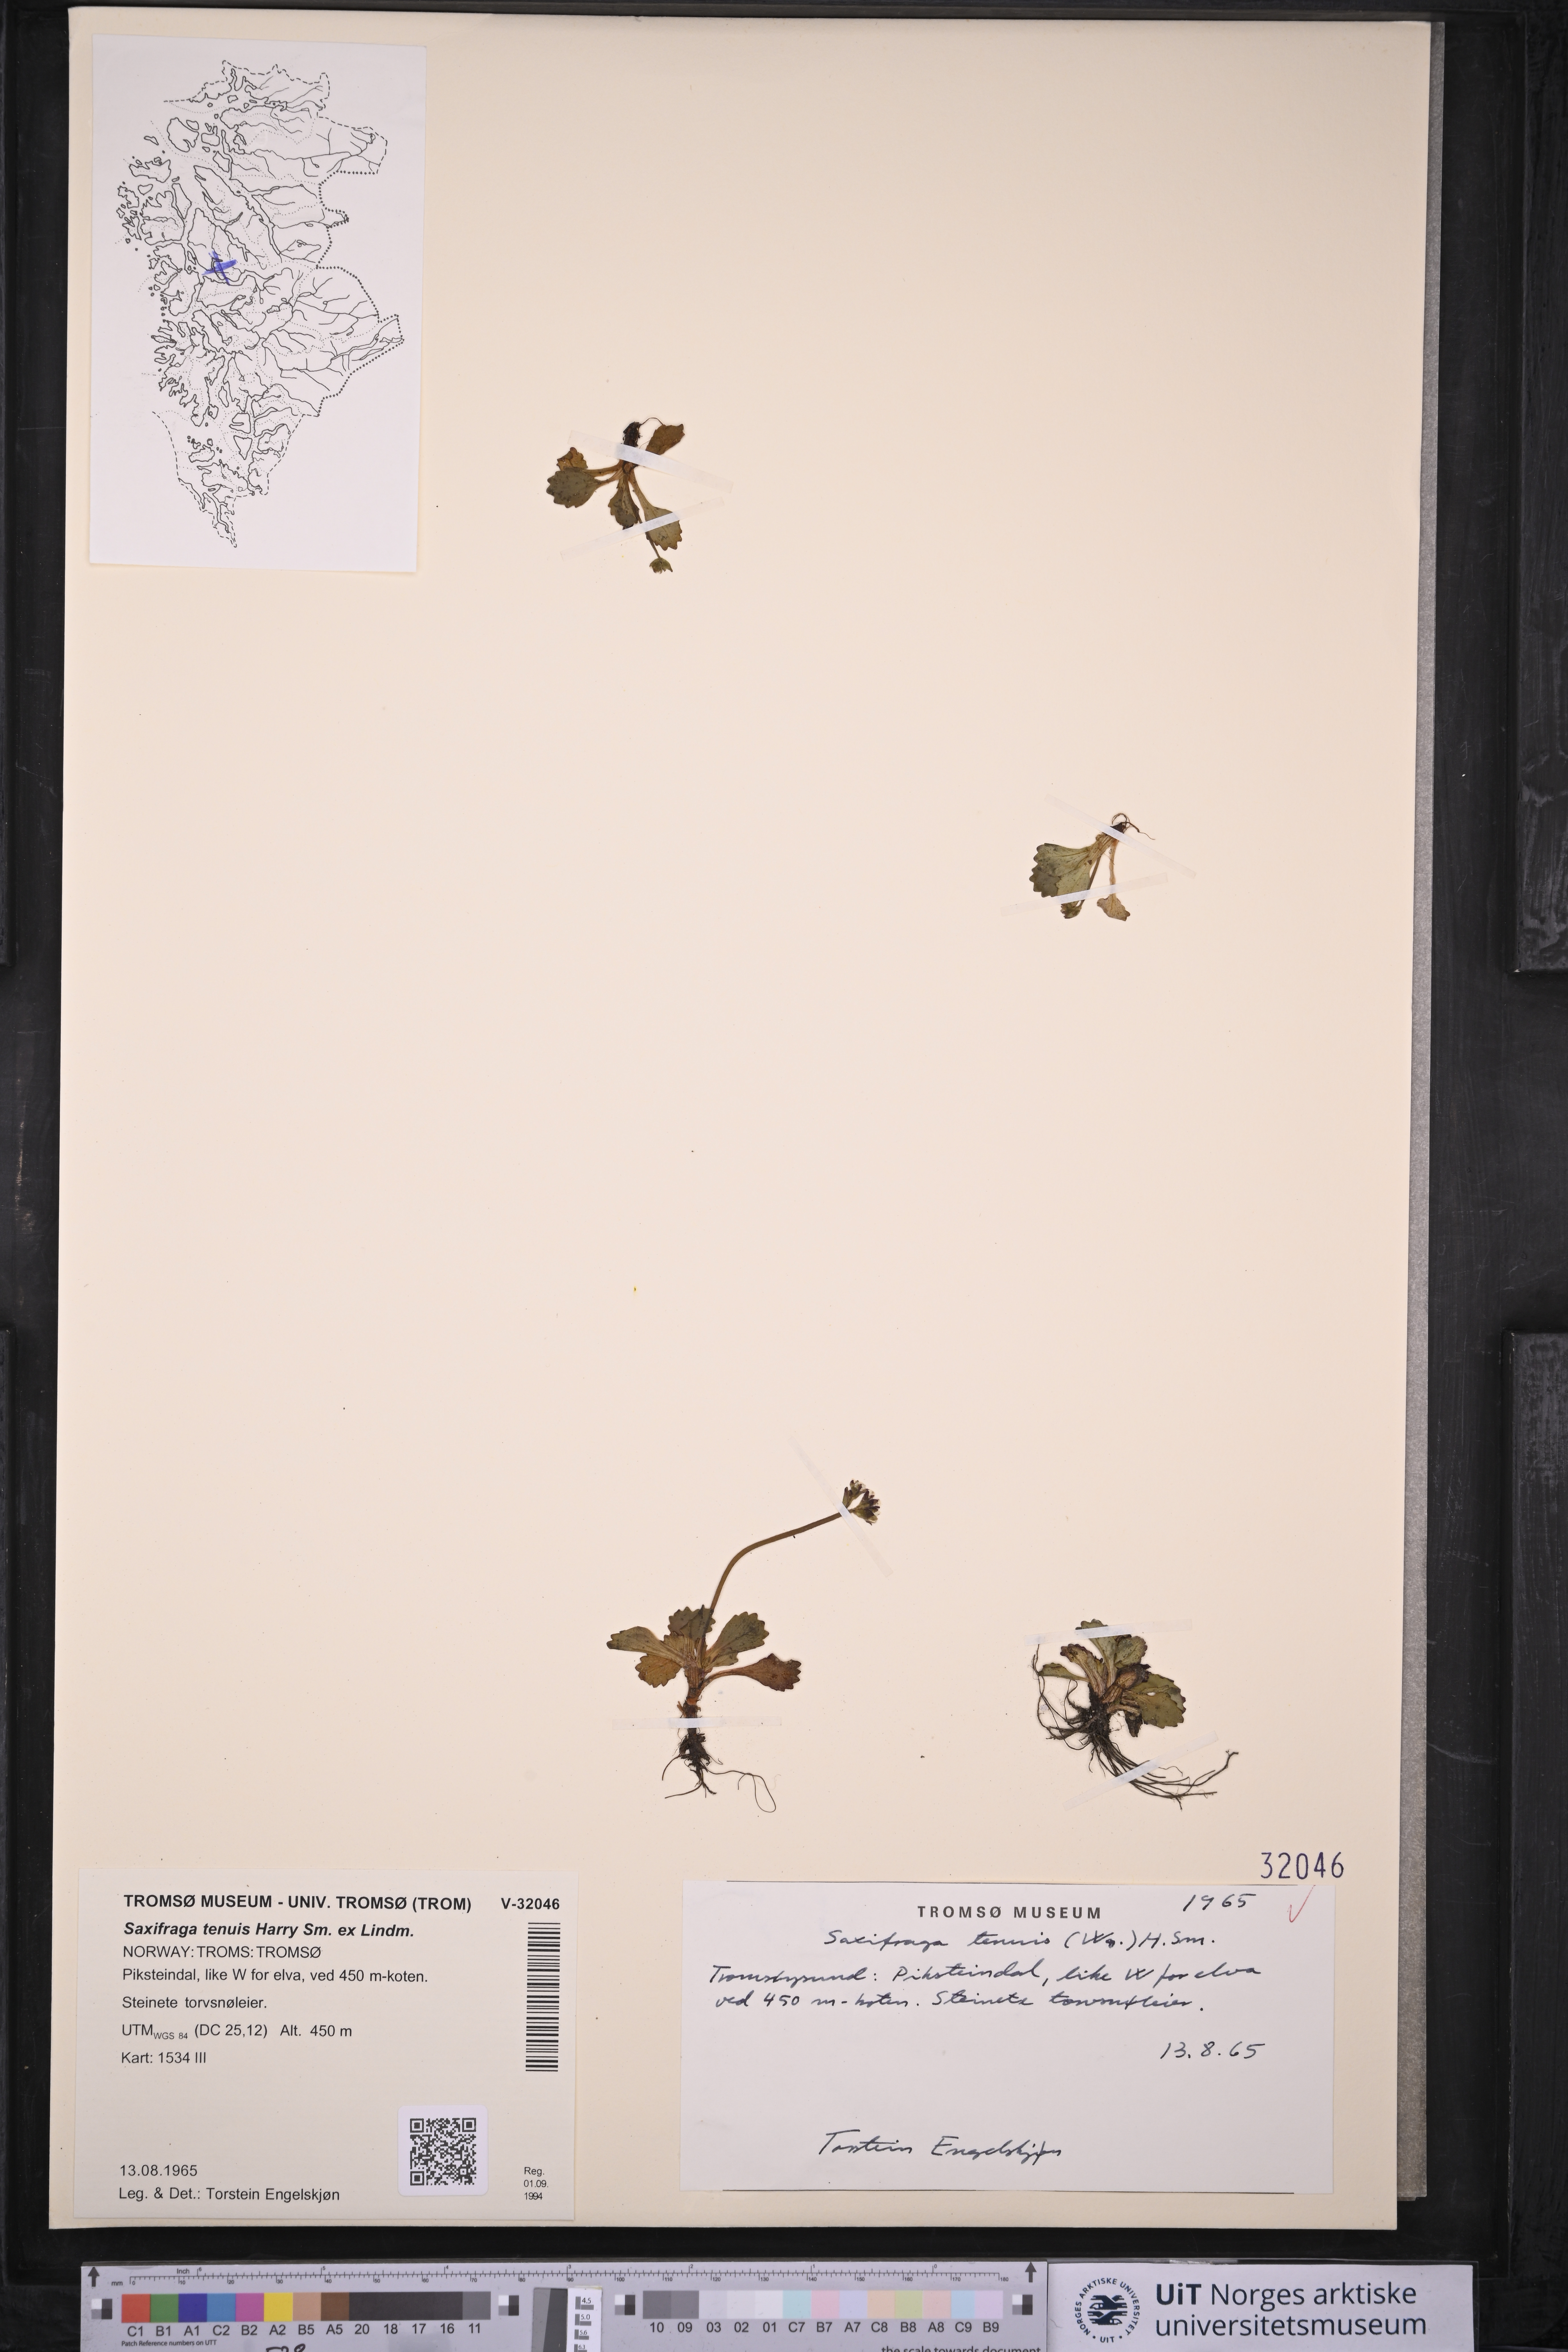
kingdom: Plantae
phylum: Tracheophyta
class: Magnoliopsida
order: Saxifragales
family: Saxifragaceae
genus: Micranthes
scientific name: Micranthes tenuis
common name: Ottertail pass saxifrage
